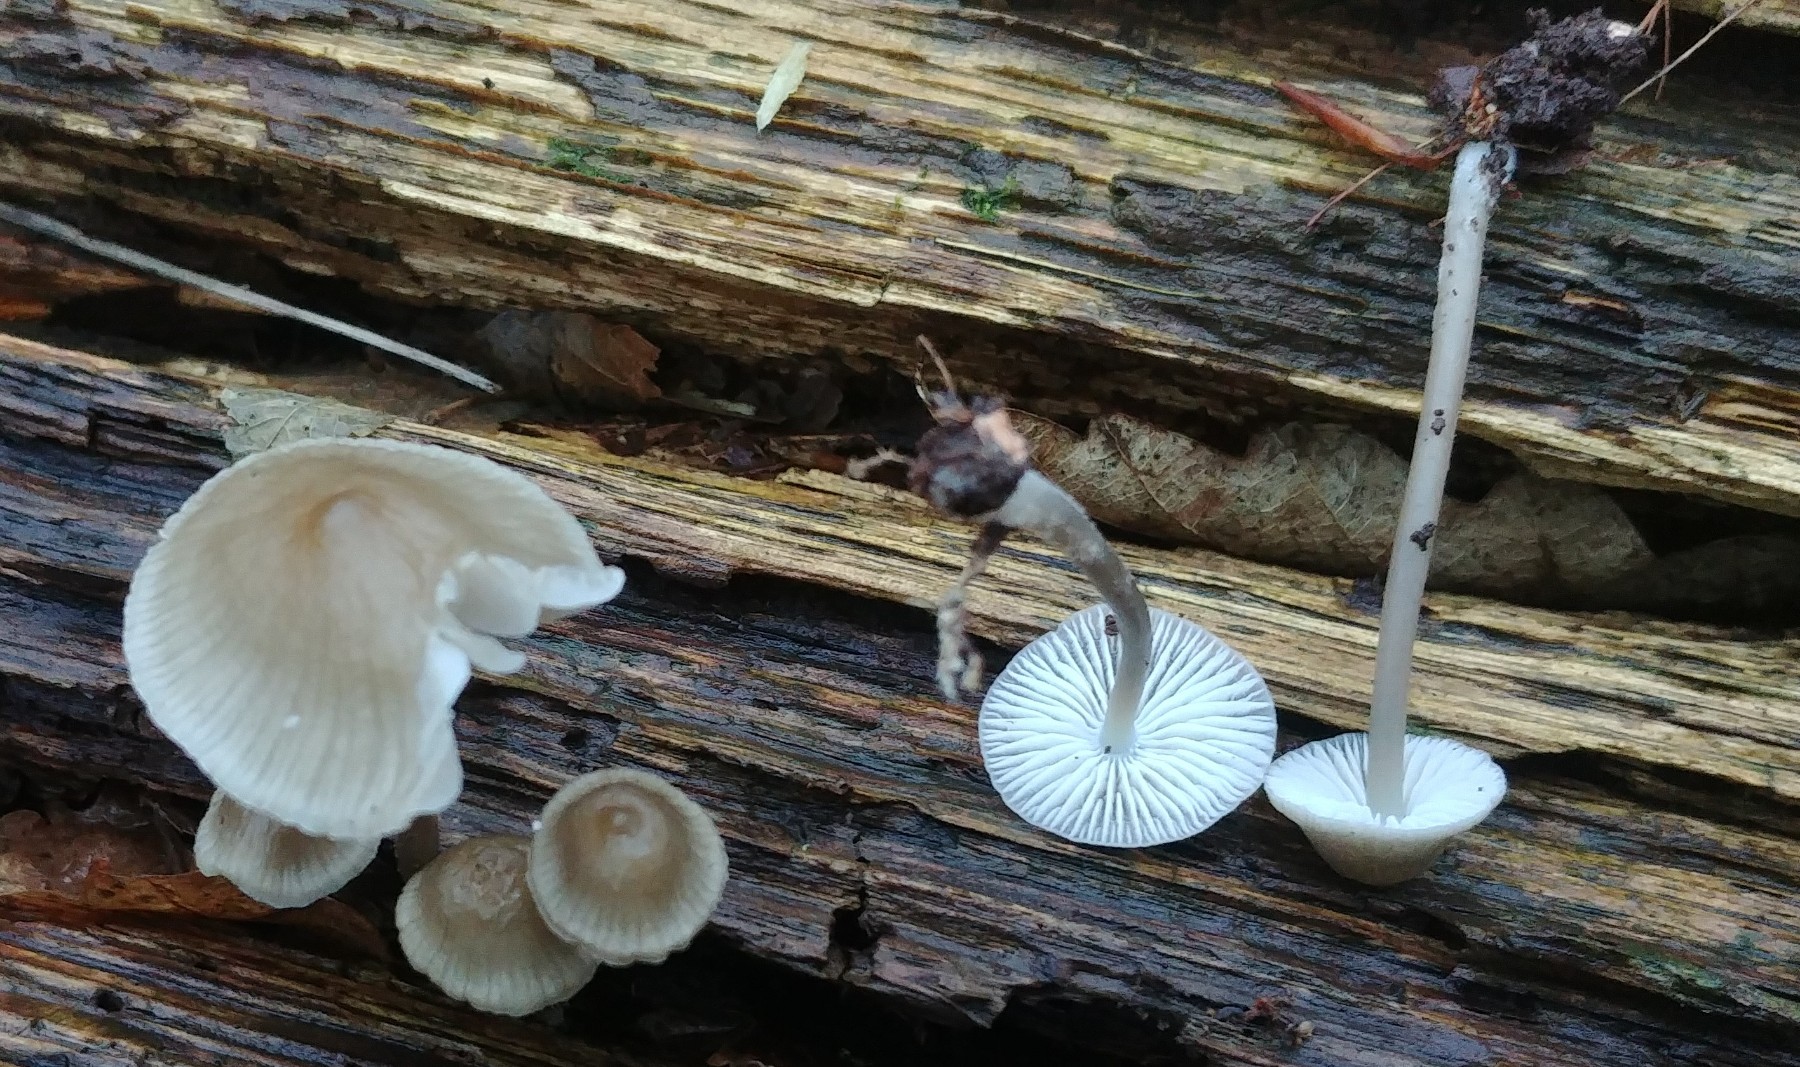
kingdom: Fungi
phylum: Basidiomycota
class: Agaricomycetes
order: Agaricales
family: Mycenaceae
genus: Mycena
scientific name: Mycena galericulata
